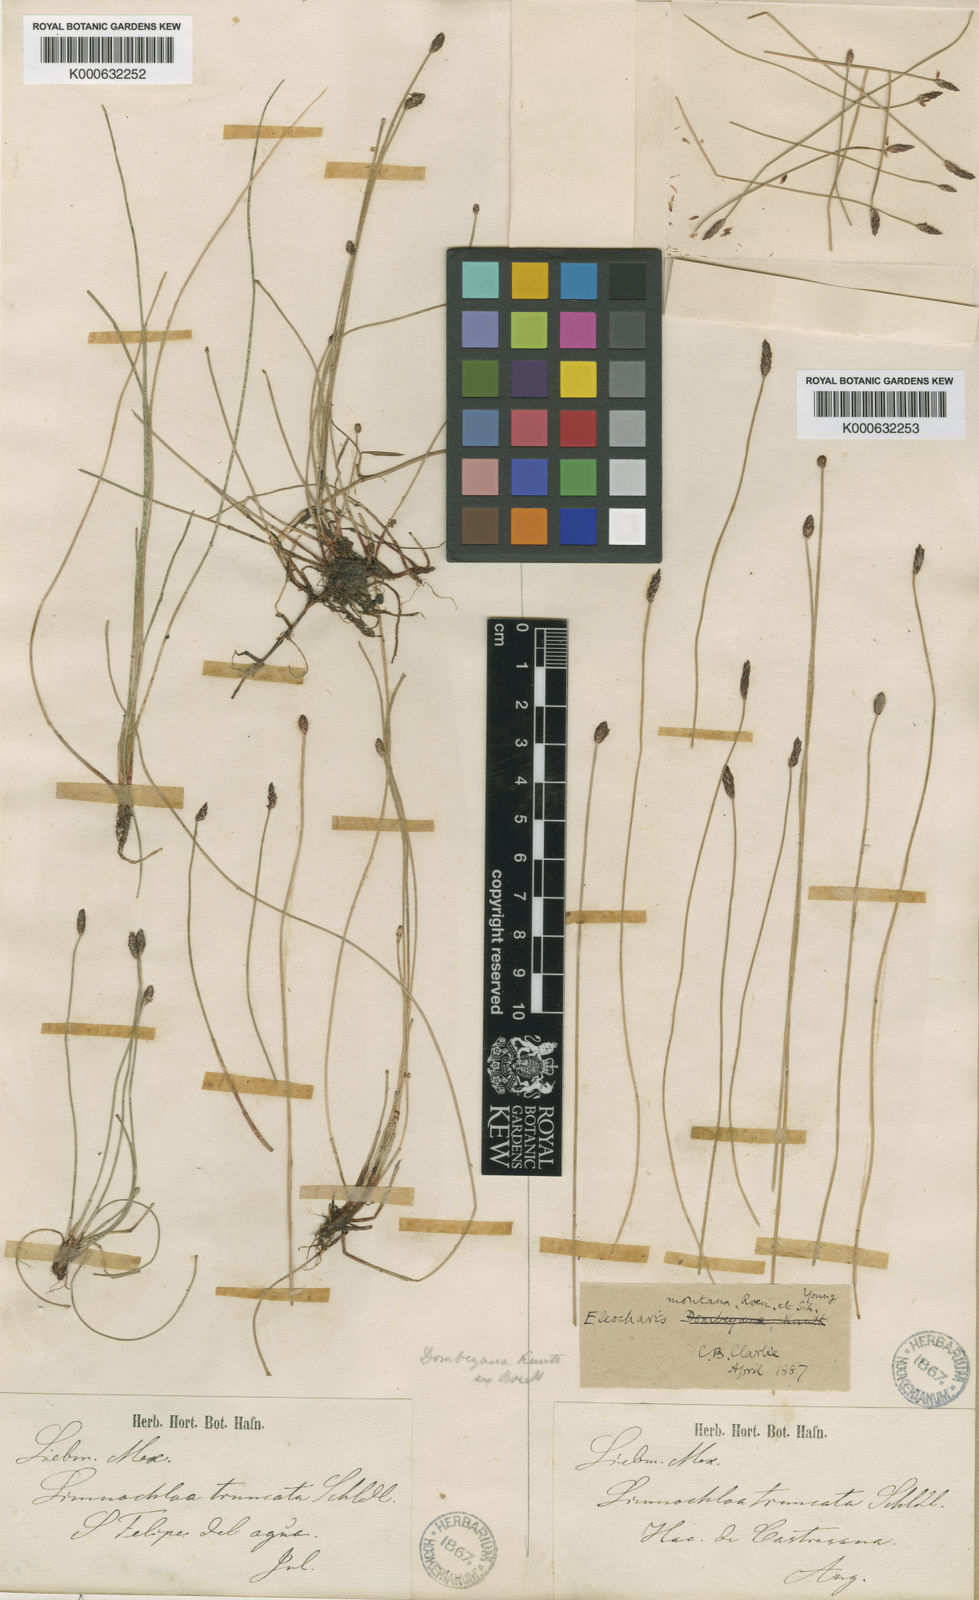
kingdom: Plantae
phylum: Tracheophyta
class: Liliopsida
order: Poales
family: Cyperaceae
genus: Eleocharis
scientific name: Eleocharis montana
